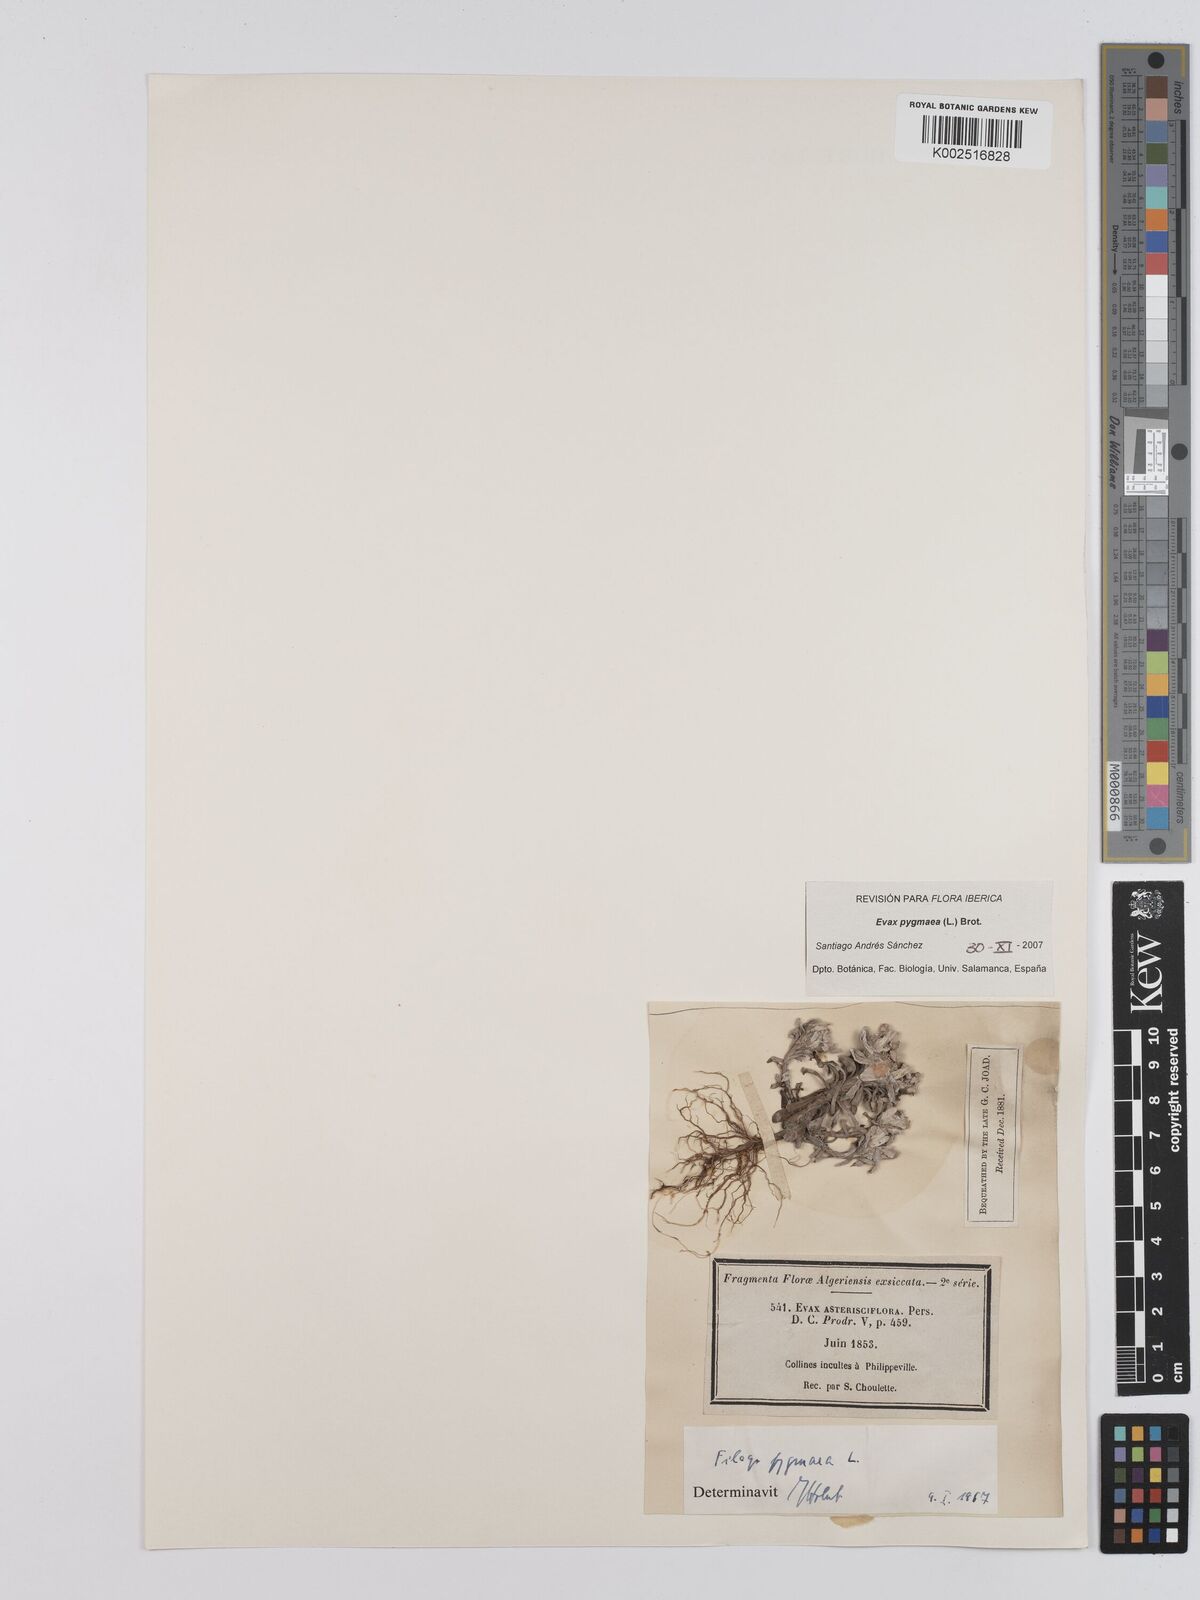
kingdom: Plantae
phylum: Tracheophyta
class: Magnoliopsida
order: Asterales
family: Asteraceae
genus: Filago
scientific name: Filago pygmaea
